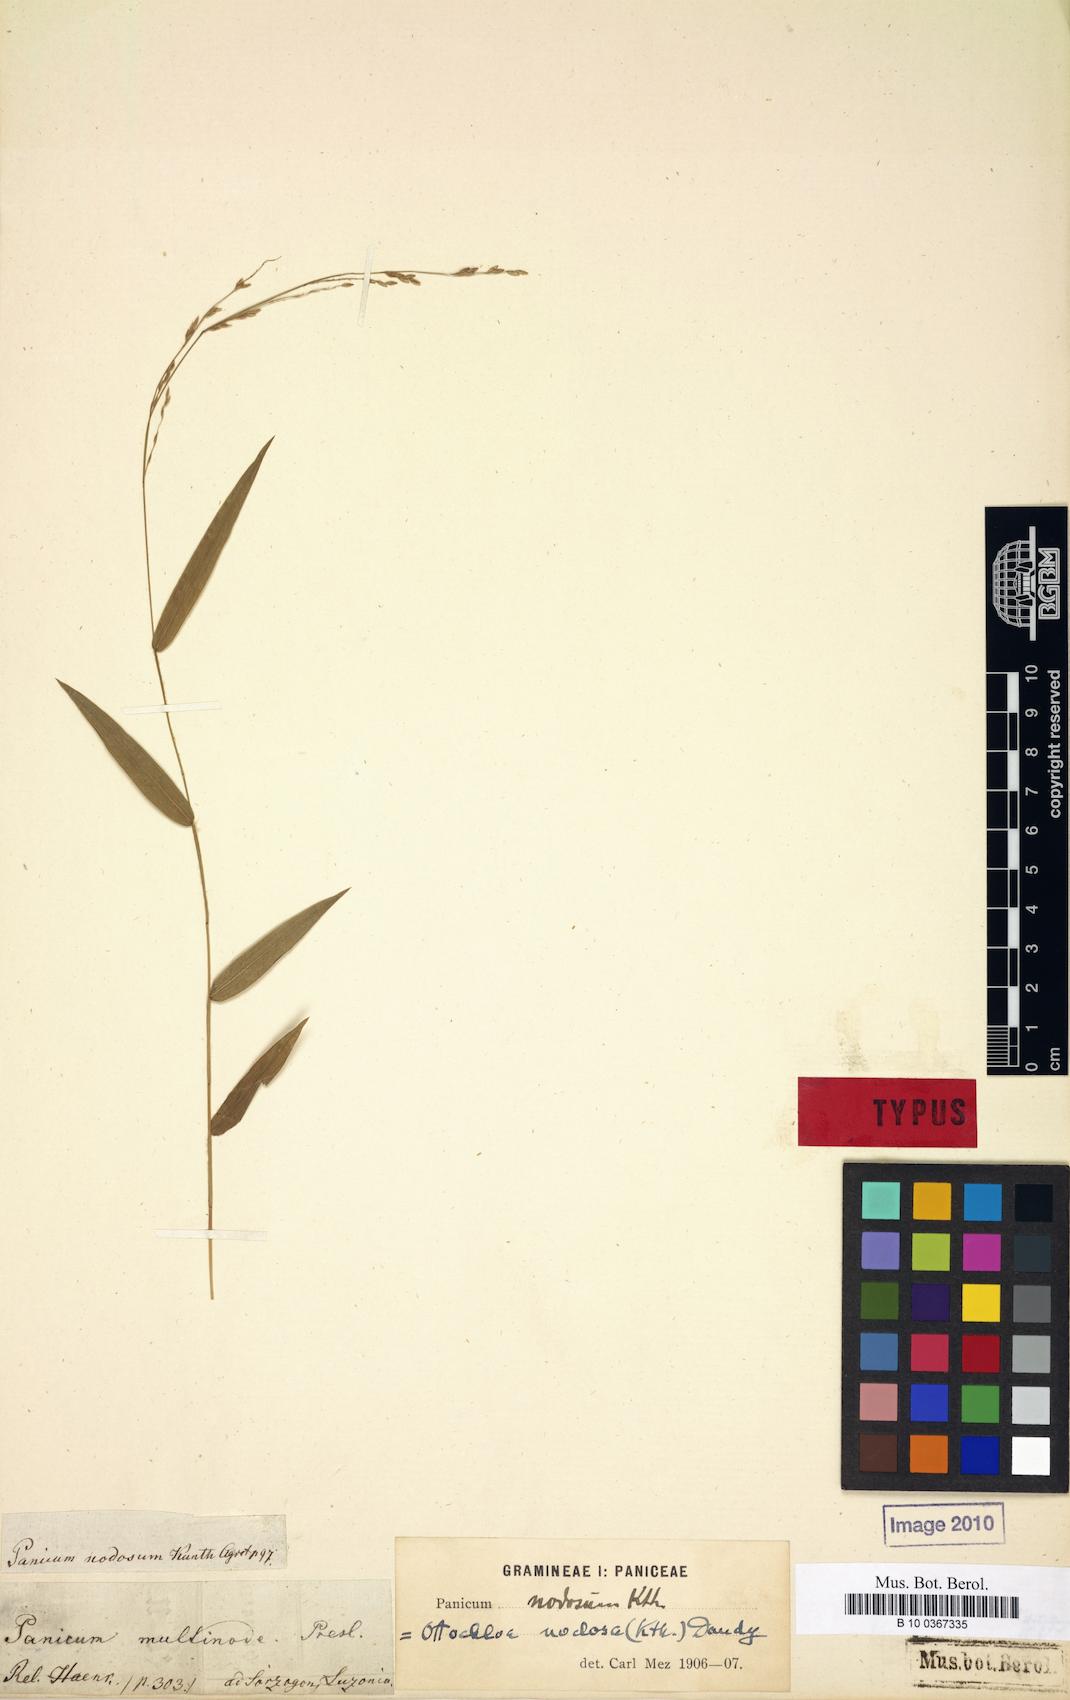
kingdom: Plantae
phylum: Tracheophyta
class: Liliopsida
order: Poales
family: Poaceae
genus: Ottochloa
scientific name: Ottochloa nodosa
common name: Slender-panic grass
